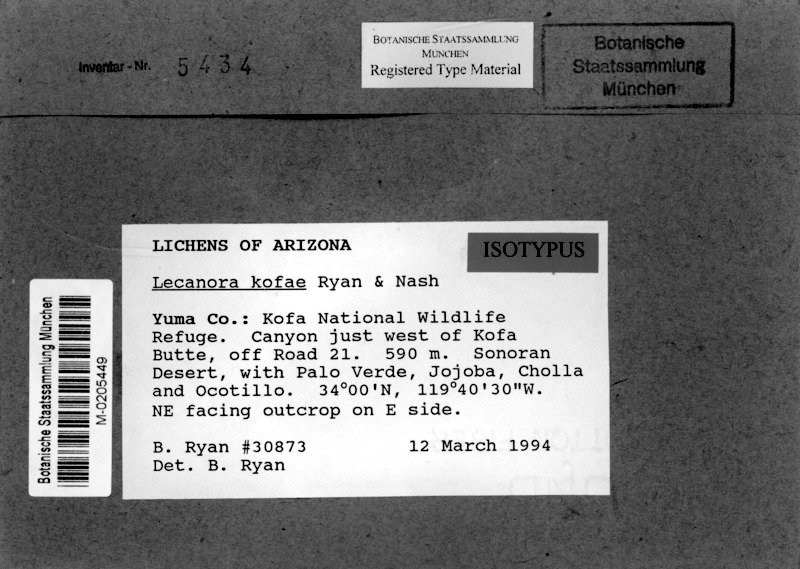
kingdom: Fungi
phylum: Ascomycota
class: Lecanoromycetes
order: Lecanorales
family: Lecanoraceae
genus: Protoparmeliopsis
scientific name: Protoparmeliopsis kofae
